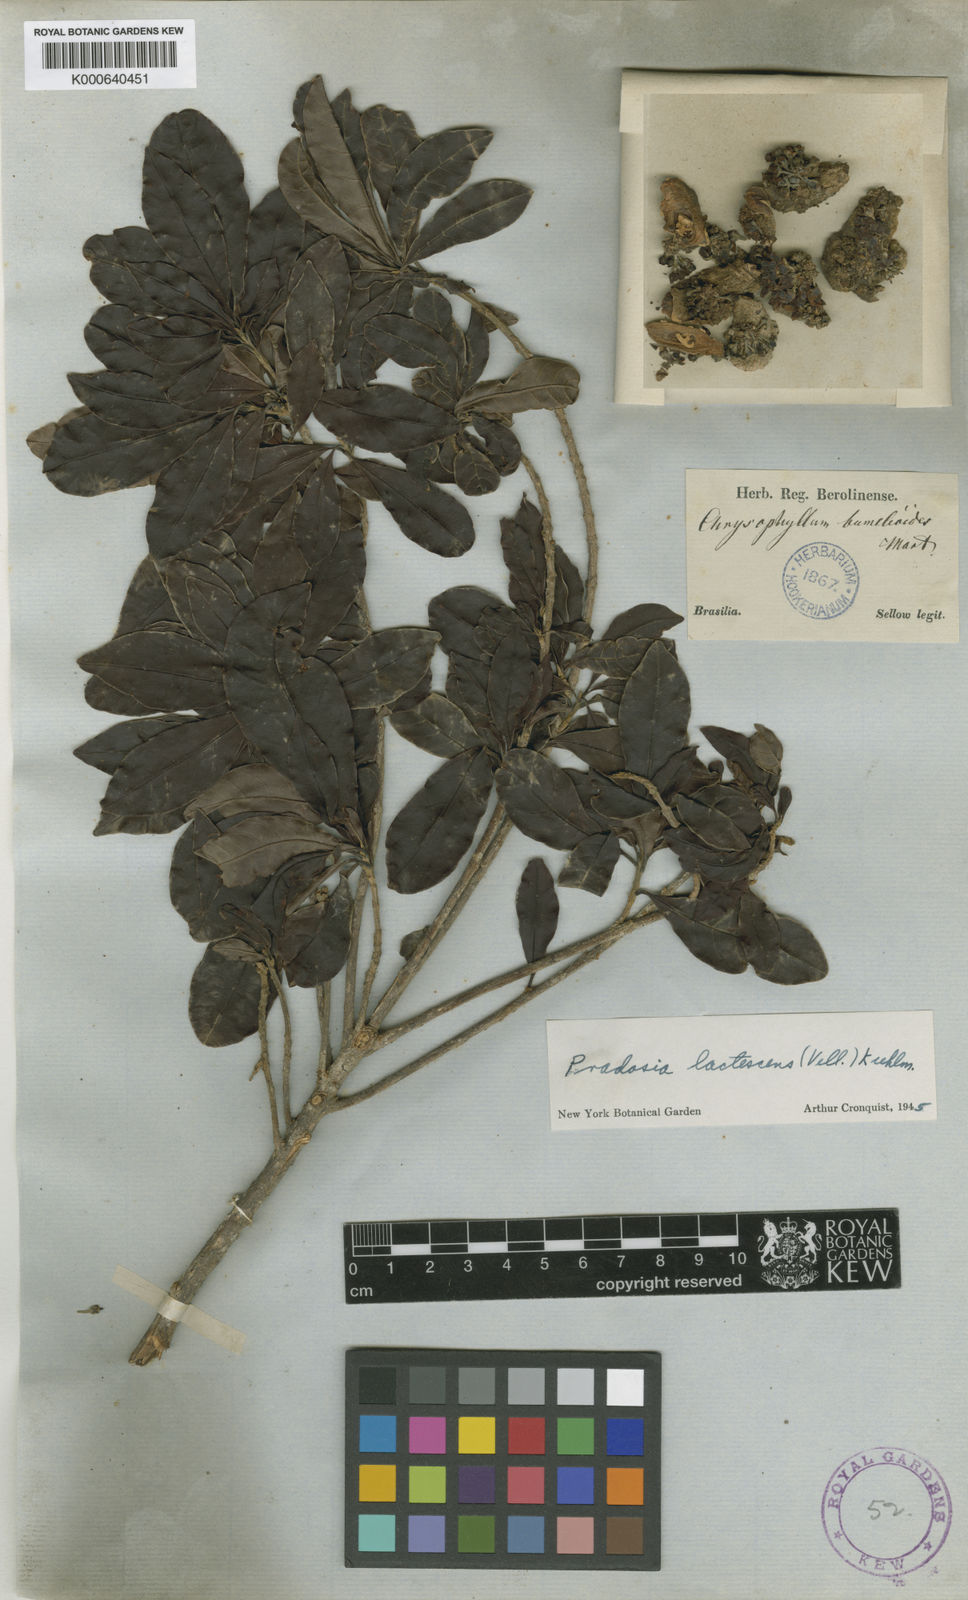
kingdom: Plantae
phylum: Tracheophyta
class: Magnoliopsida
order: Ericales
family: Sapotaceae
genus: Pradosia
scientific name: Pradosia lactescens
